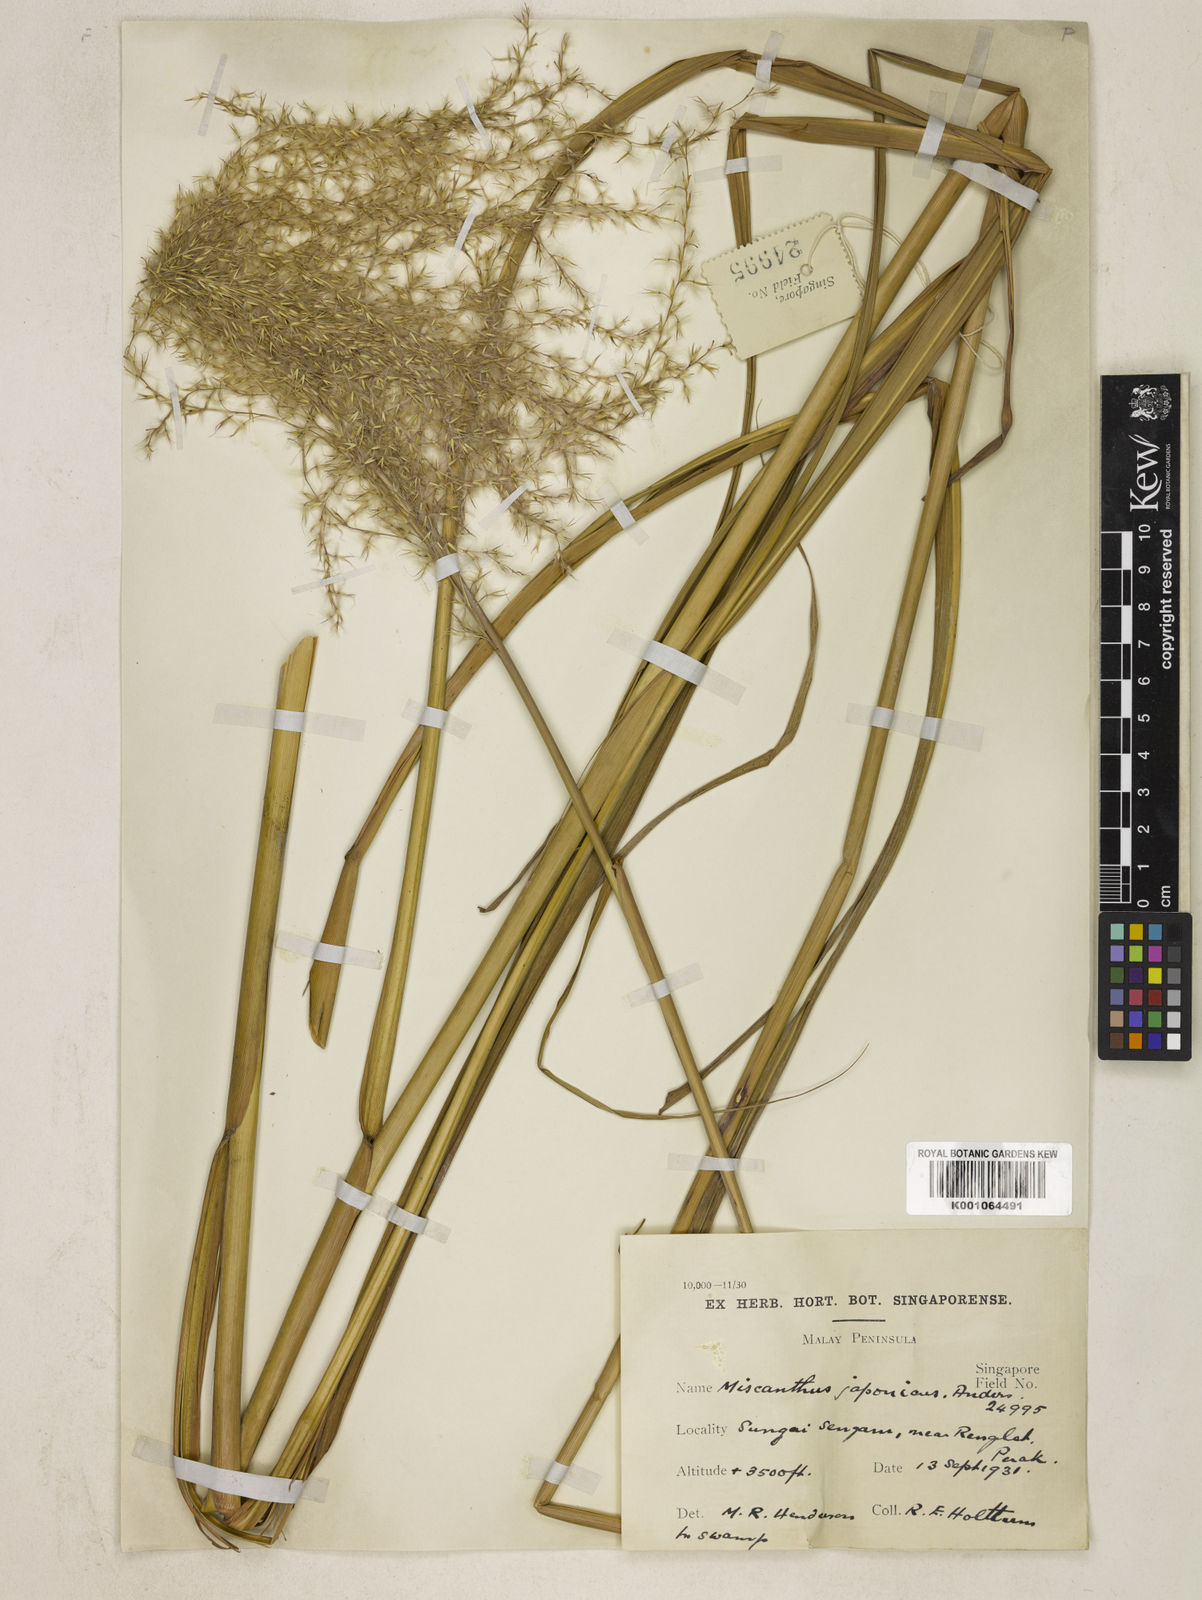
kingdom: Plantae
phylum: Tracheophyta
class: Liliopsida
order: Poales
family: Poaceae
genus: Miscanthus
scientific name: Miscanthus sinensis
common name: Chinese silvergrass
